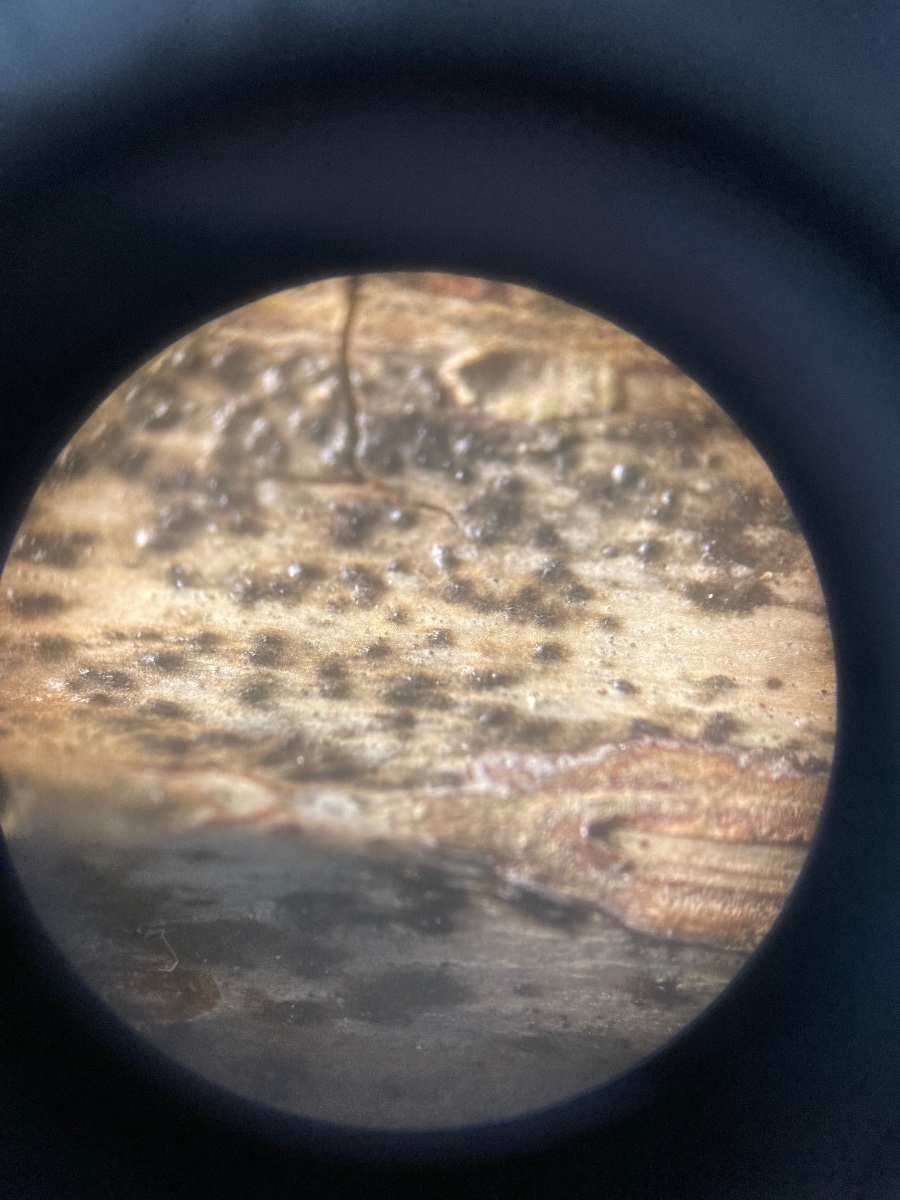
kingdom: Fungi
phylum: Ascomycota
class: Sordariomycetes
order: Amphisphaeriales
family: Sporocadaceae
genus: Discostroma
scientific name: Discostroma corticola
